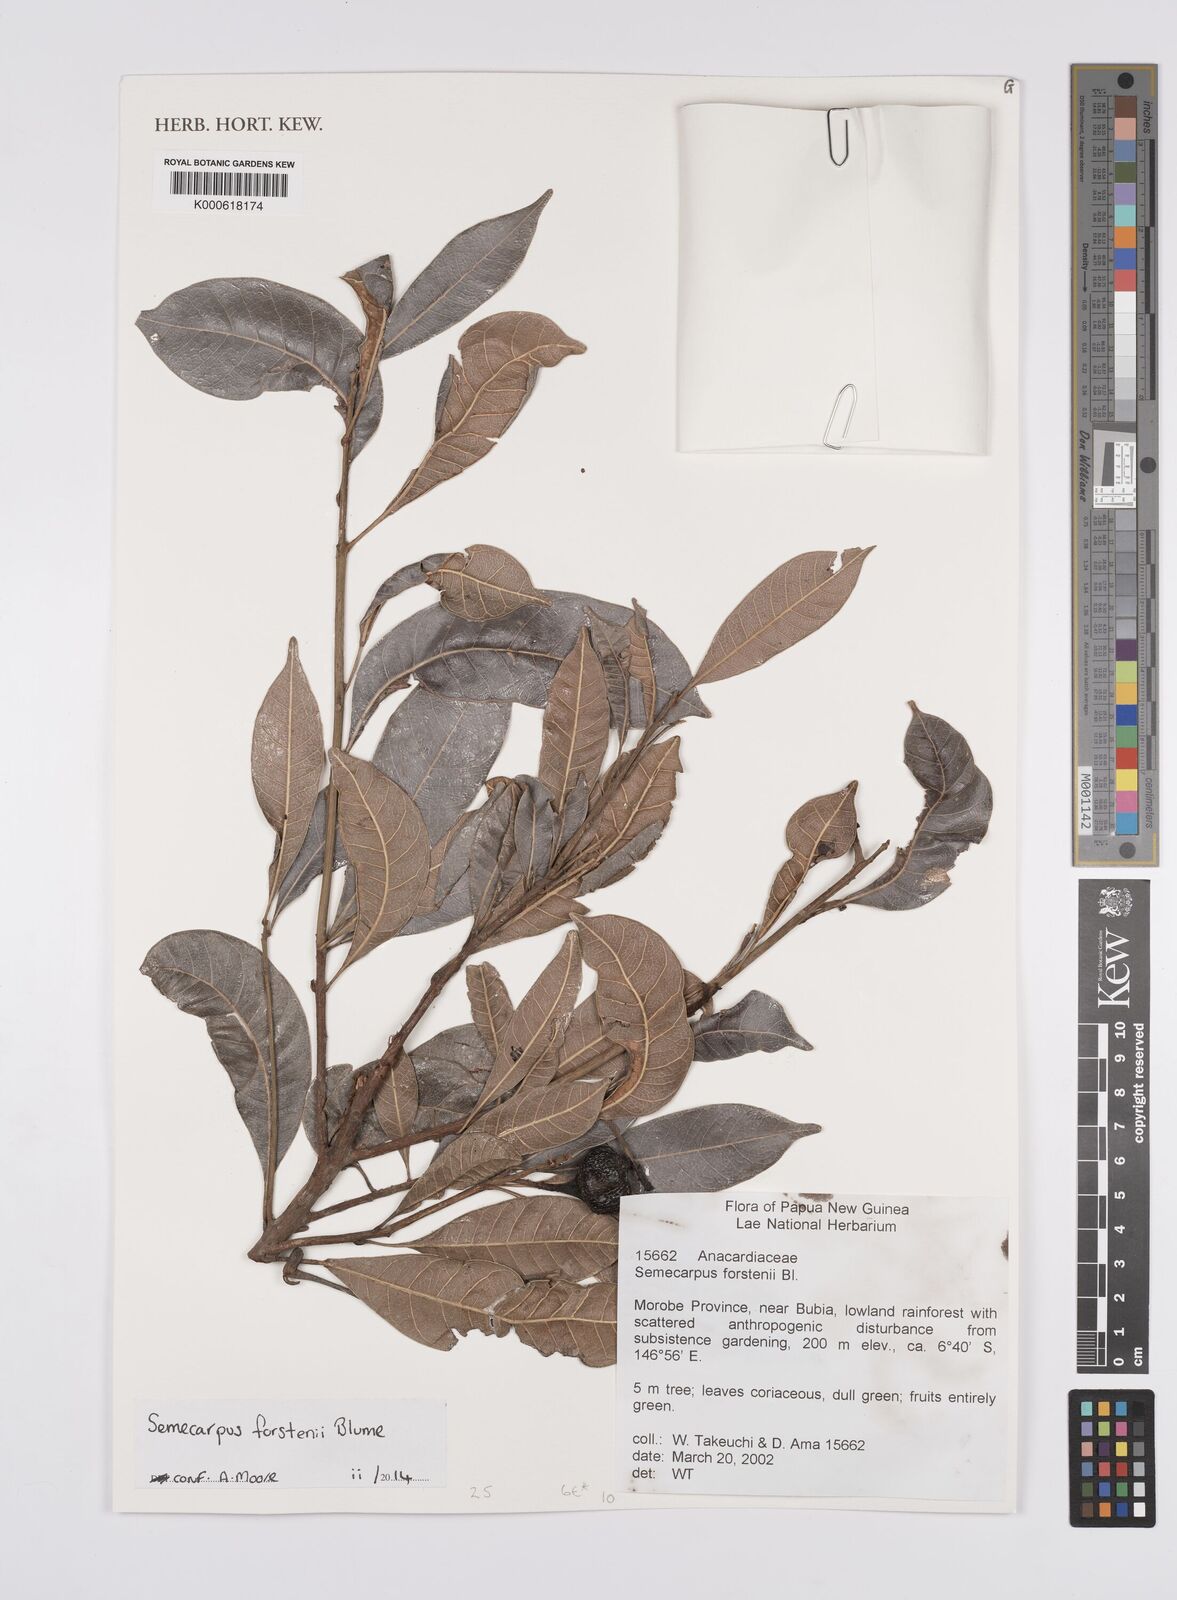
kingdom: Plantae
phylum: Tracheophyta
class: Magnoliopsida
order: Sapindales
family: Anacardiaceae
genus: Semecarpus
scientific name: Semecarpus forstenii
